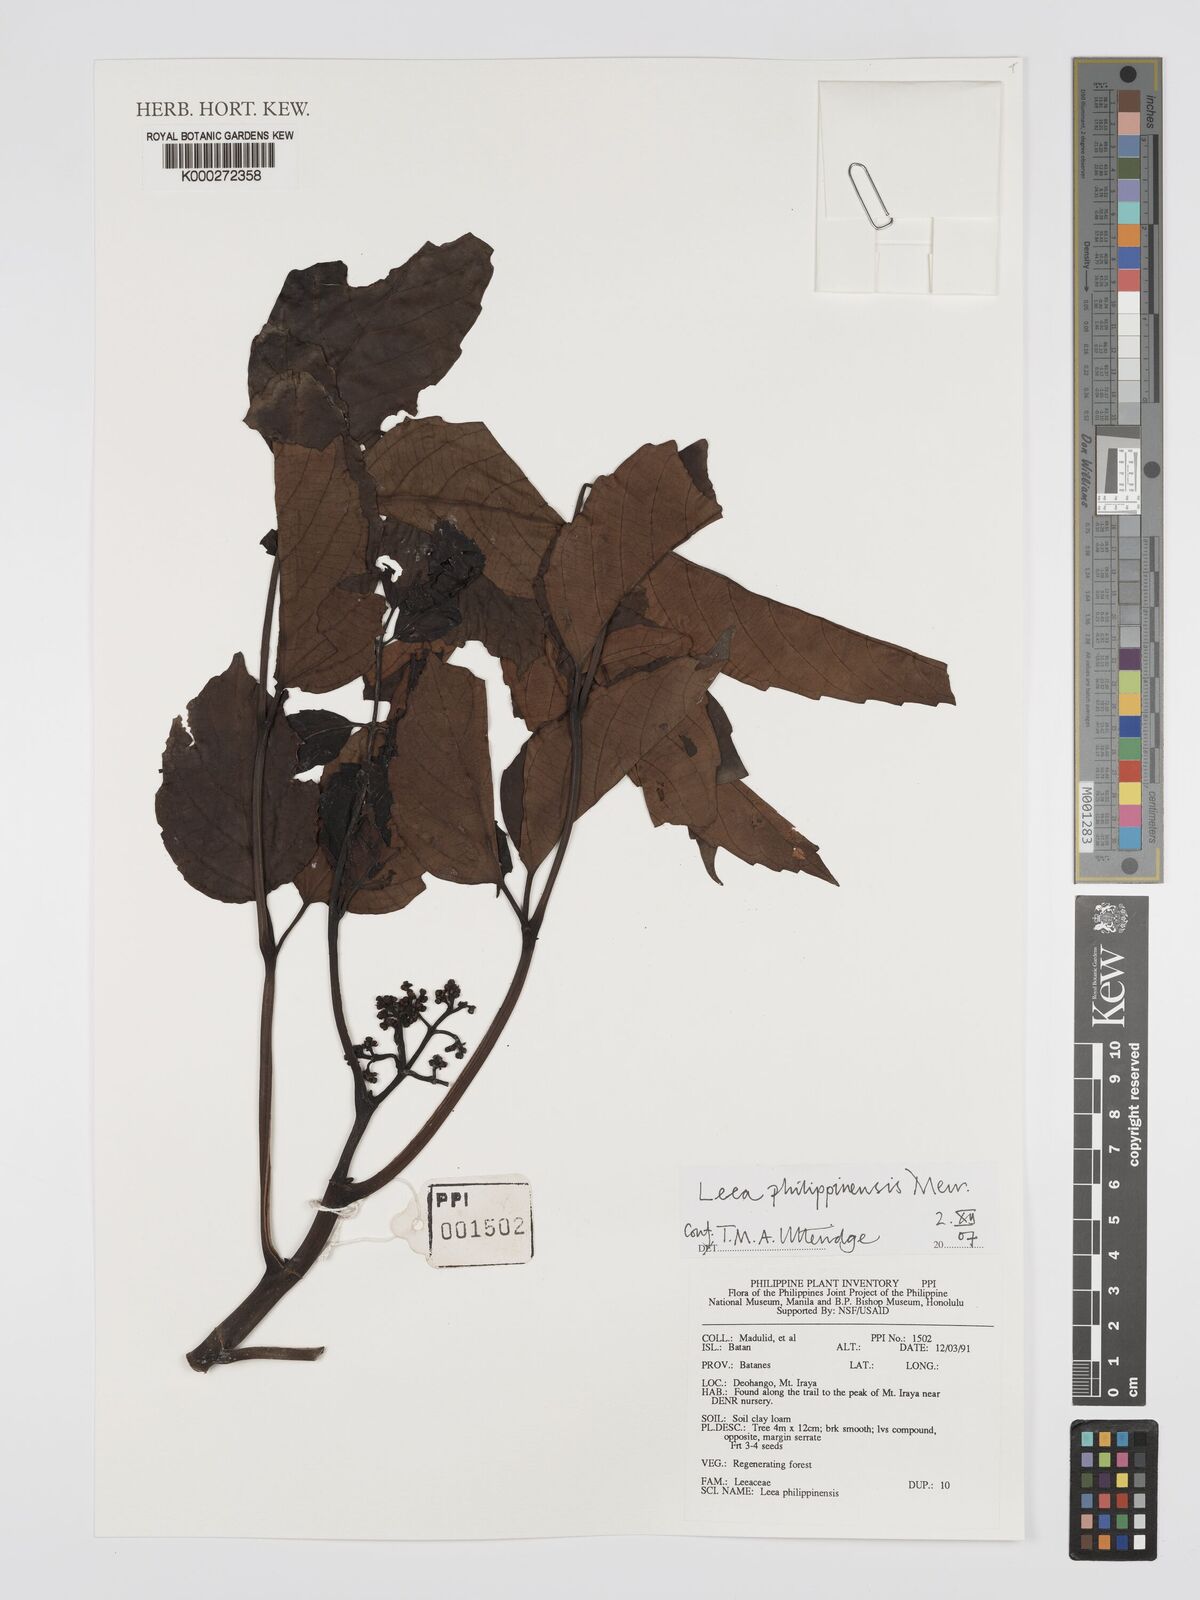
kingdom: Plantae
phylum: Tracheophyta
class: Magnoliopsida
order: Vitales
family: Vitaceae
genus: Leea
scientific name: Leea philippinensis
